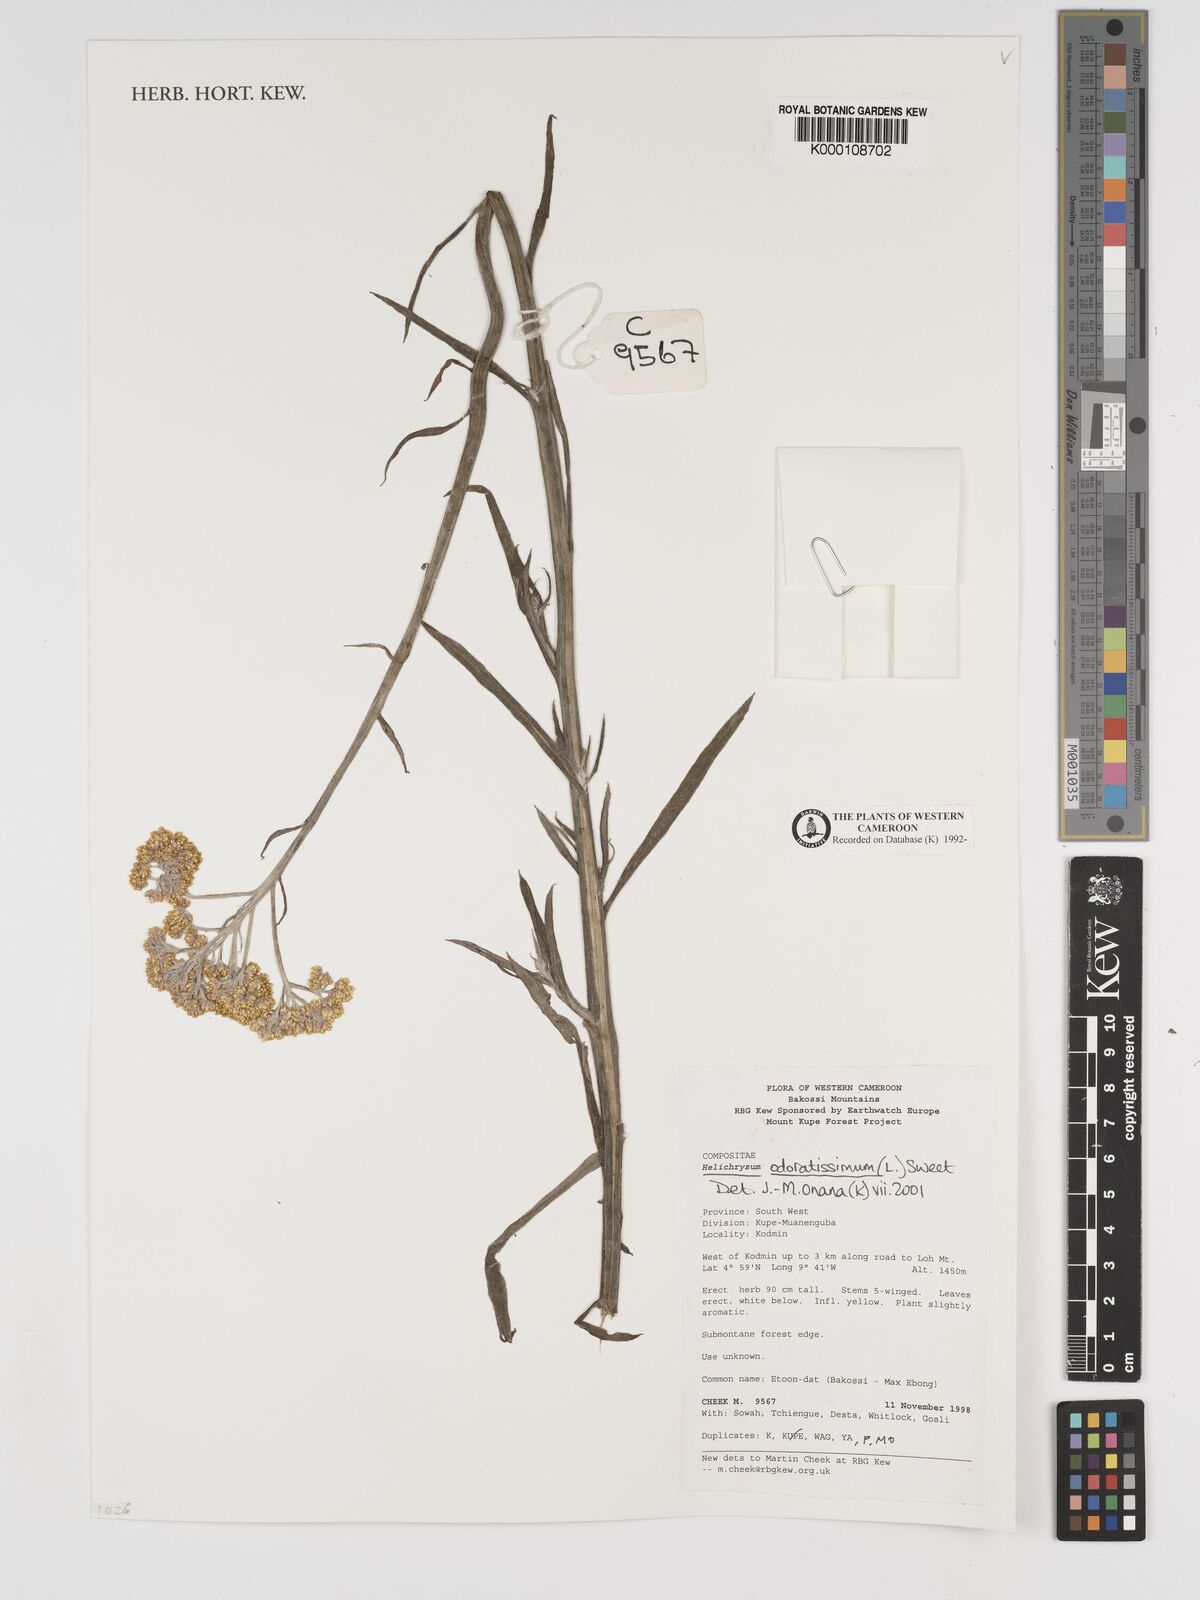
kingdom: Plantae
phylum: Tracheophyta
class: Magnoliopsida
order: Asterales
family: Asteraceae
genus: Helichrysum
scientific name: Helichrysum odoratissimum
